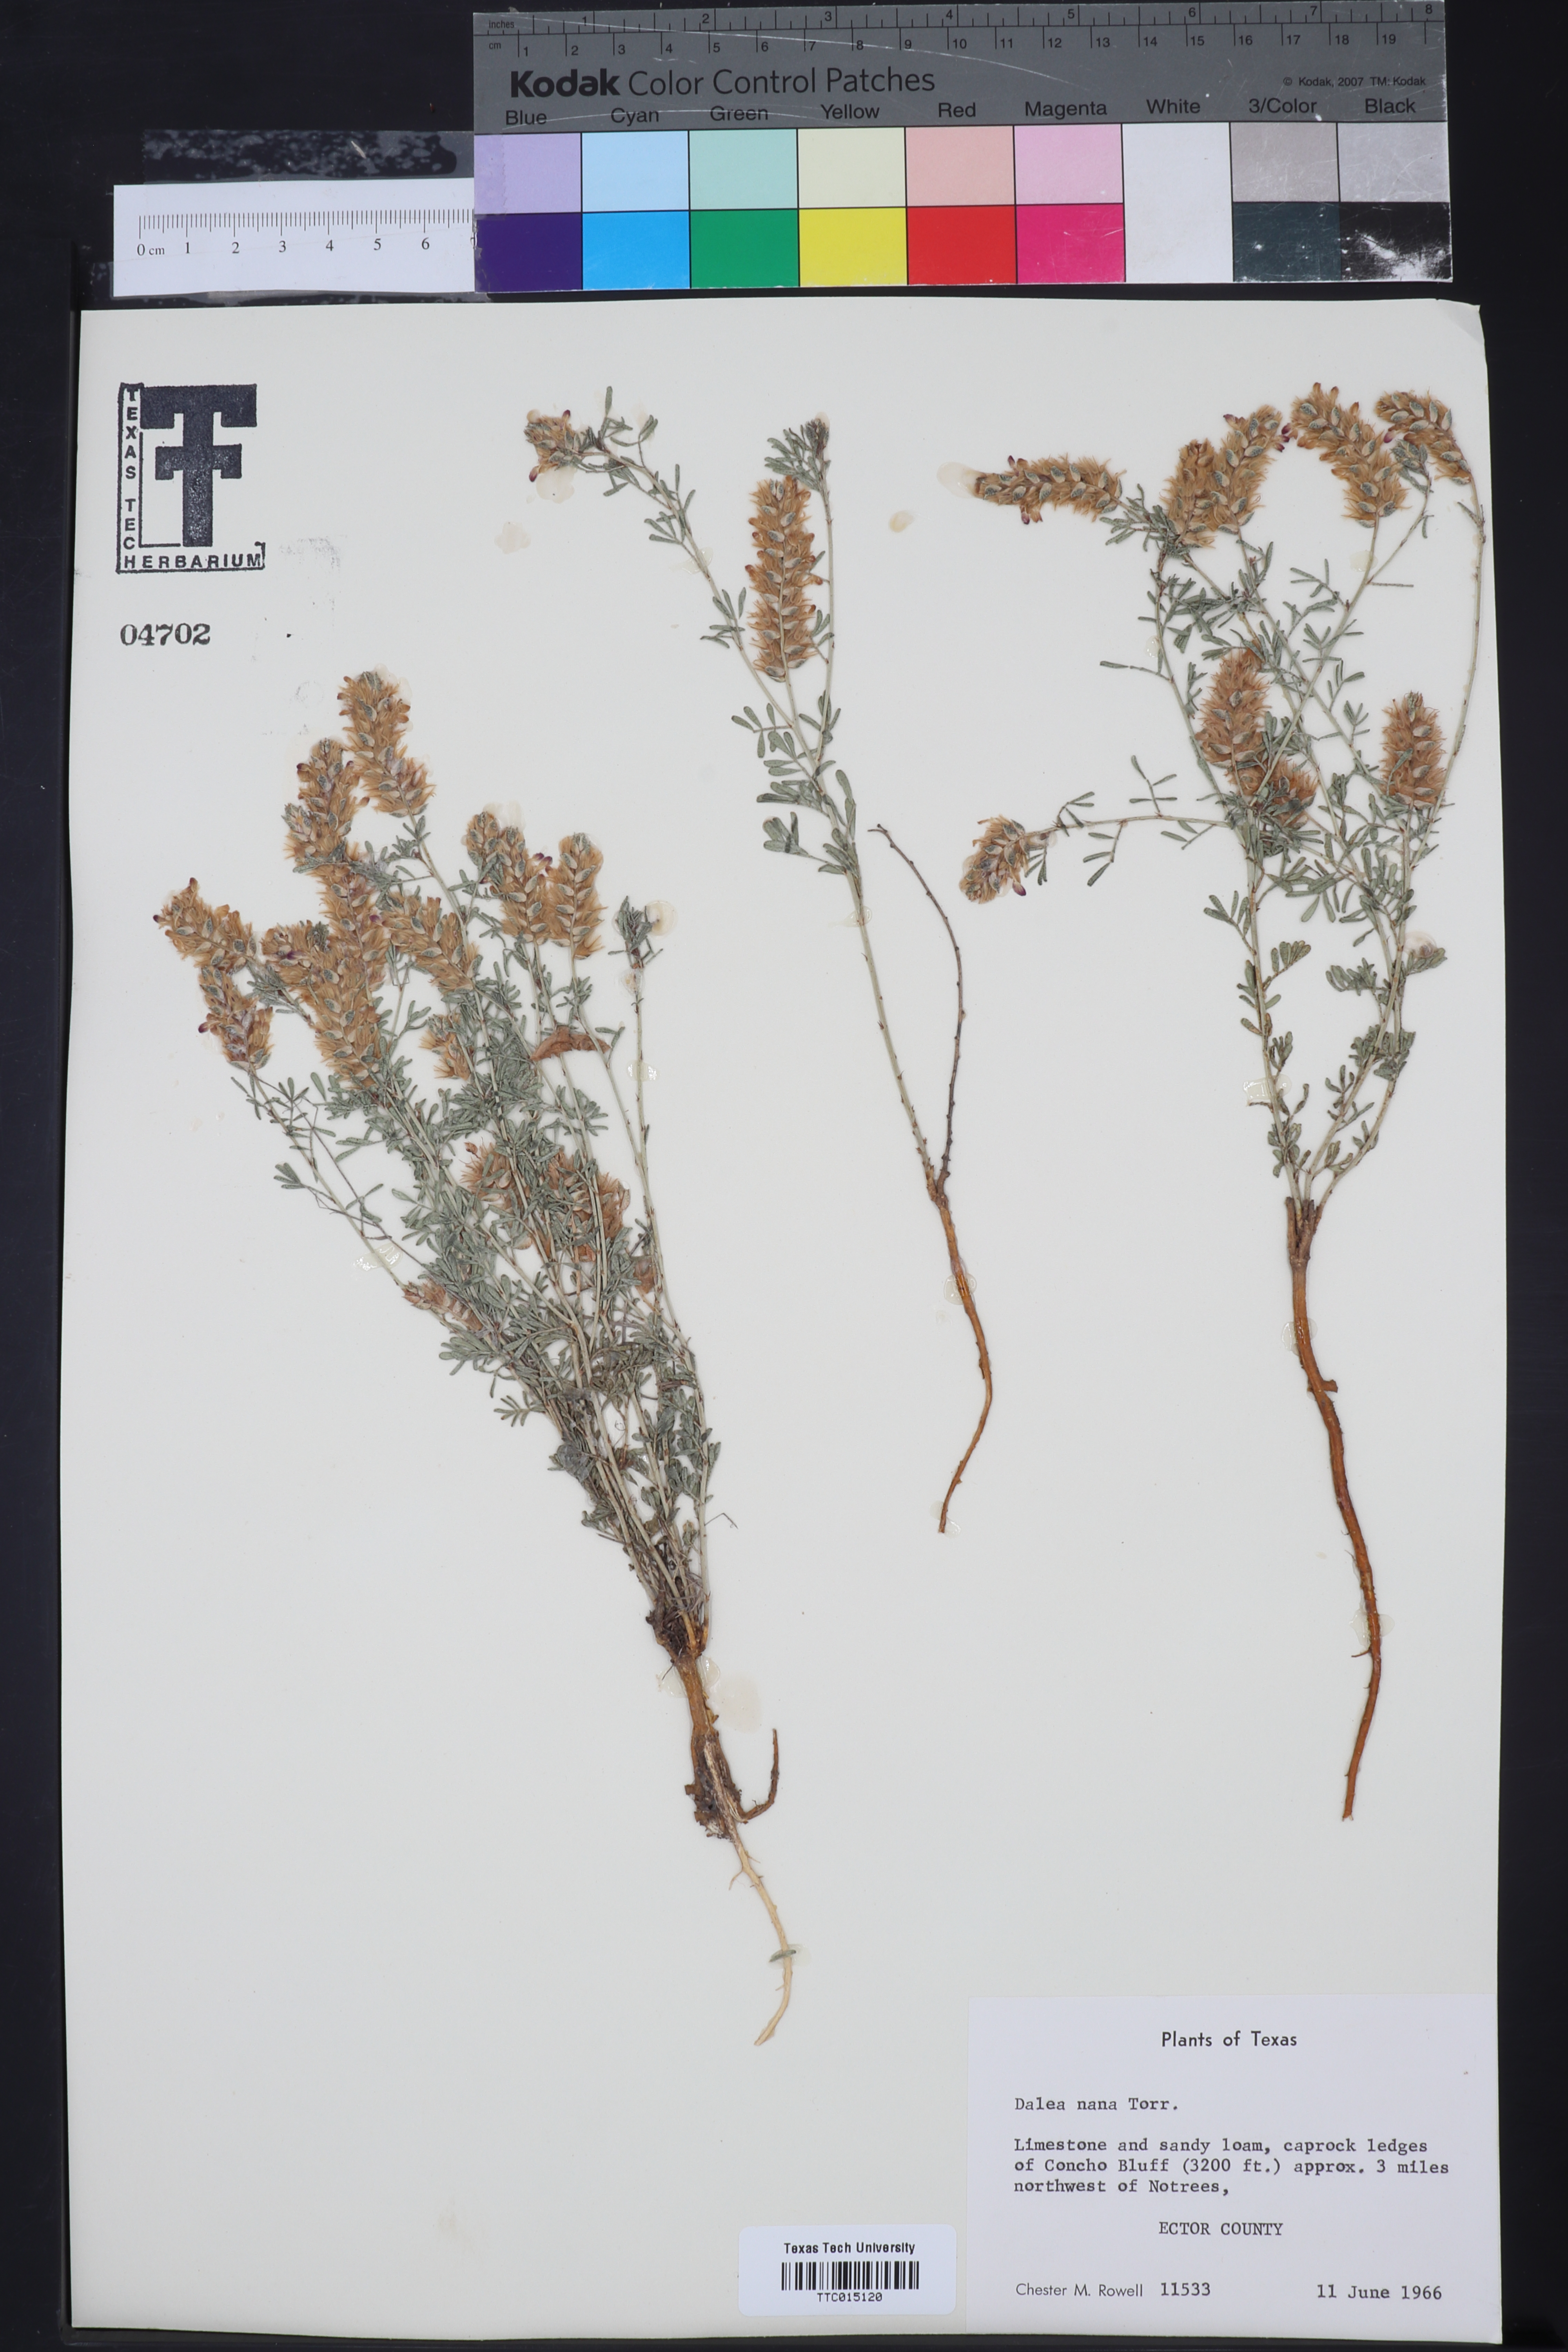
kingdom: Plantae
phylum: Tracheophyta
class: Magnoliopsida
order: Fabales
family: Fabaceae
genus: Dalea
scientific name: Dalea nana
